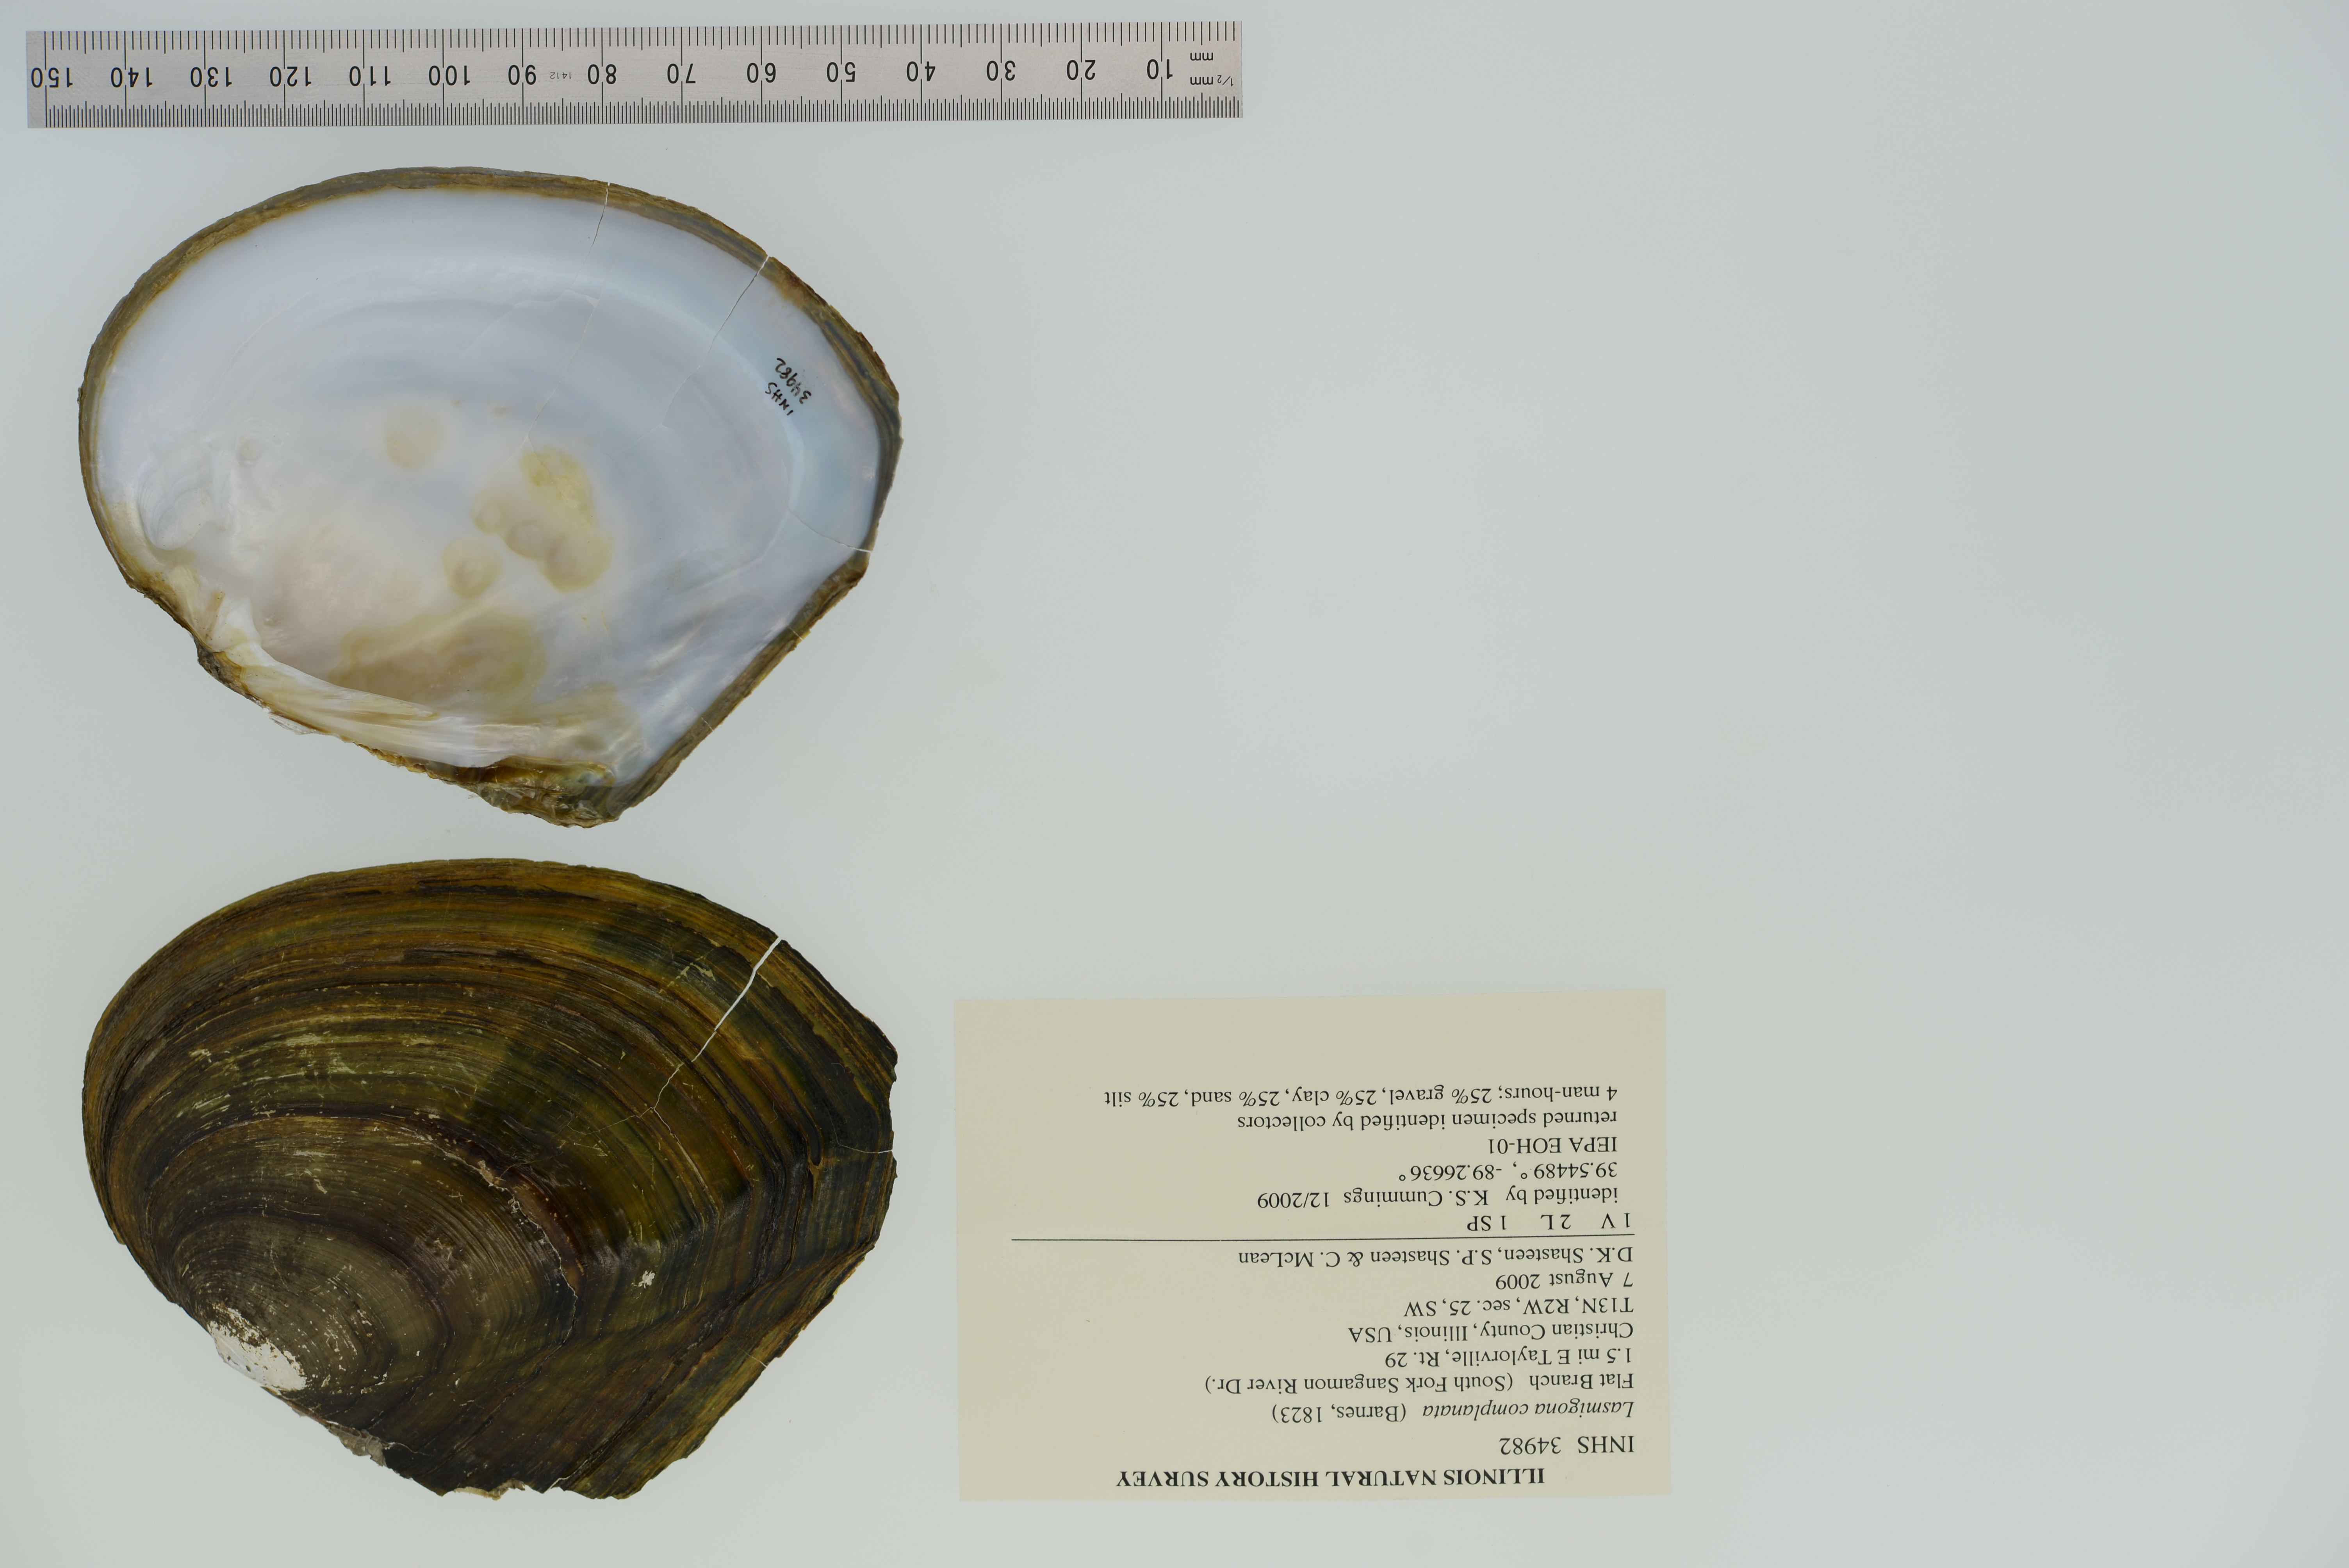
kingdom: Animalia
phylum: Mollusca
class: Bivalvia
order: Unionida
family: Unionidae
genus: Lasmigona
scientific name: Lasmigona complanata
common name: White heelsplitter
